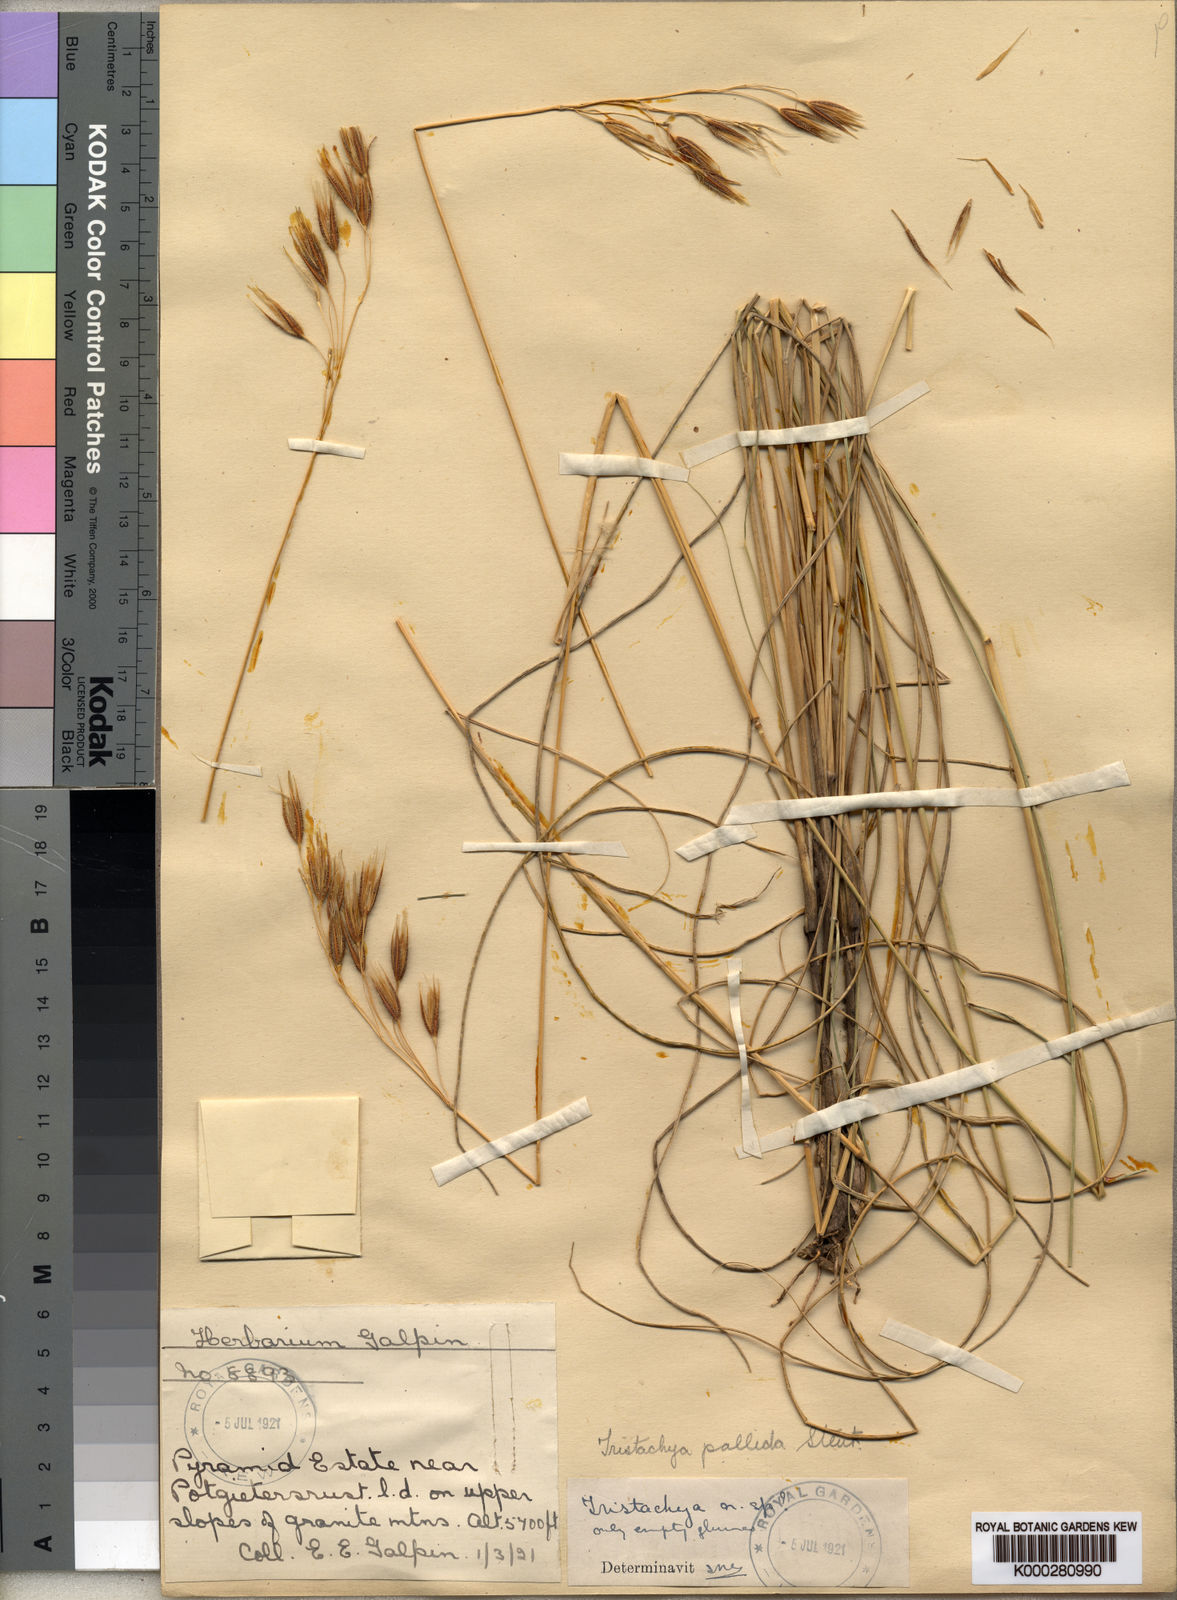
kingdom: Plantae
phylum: Tracheophyta
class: Liliopsida
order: Poales
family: Poaceae
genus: Tristachya
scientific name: Tristachya biseriata
